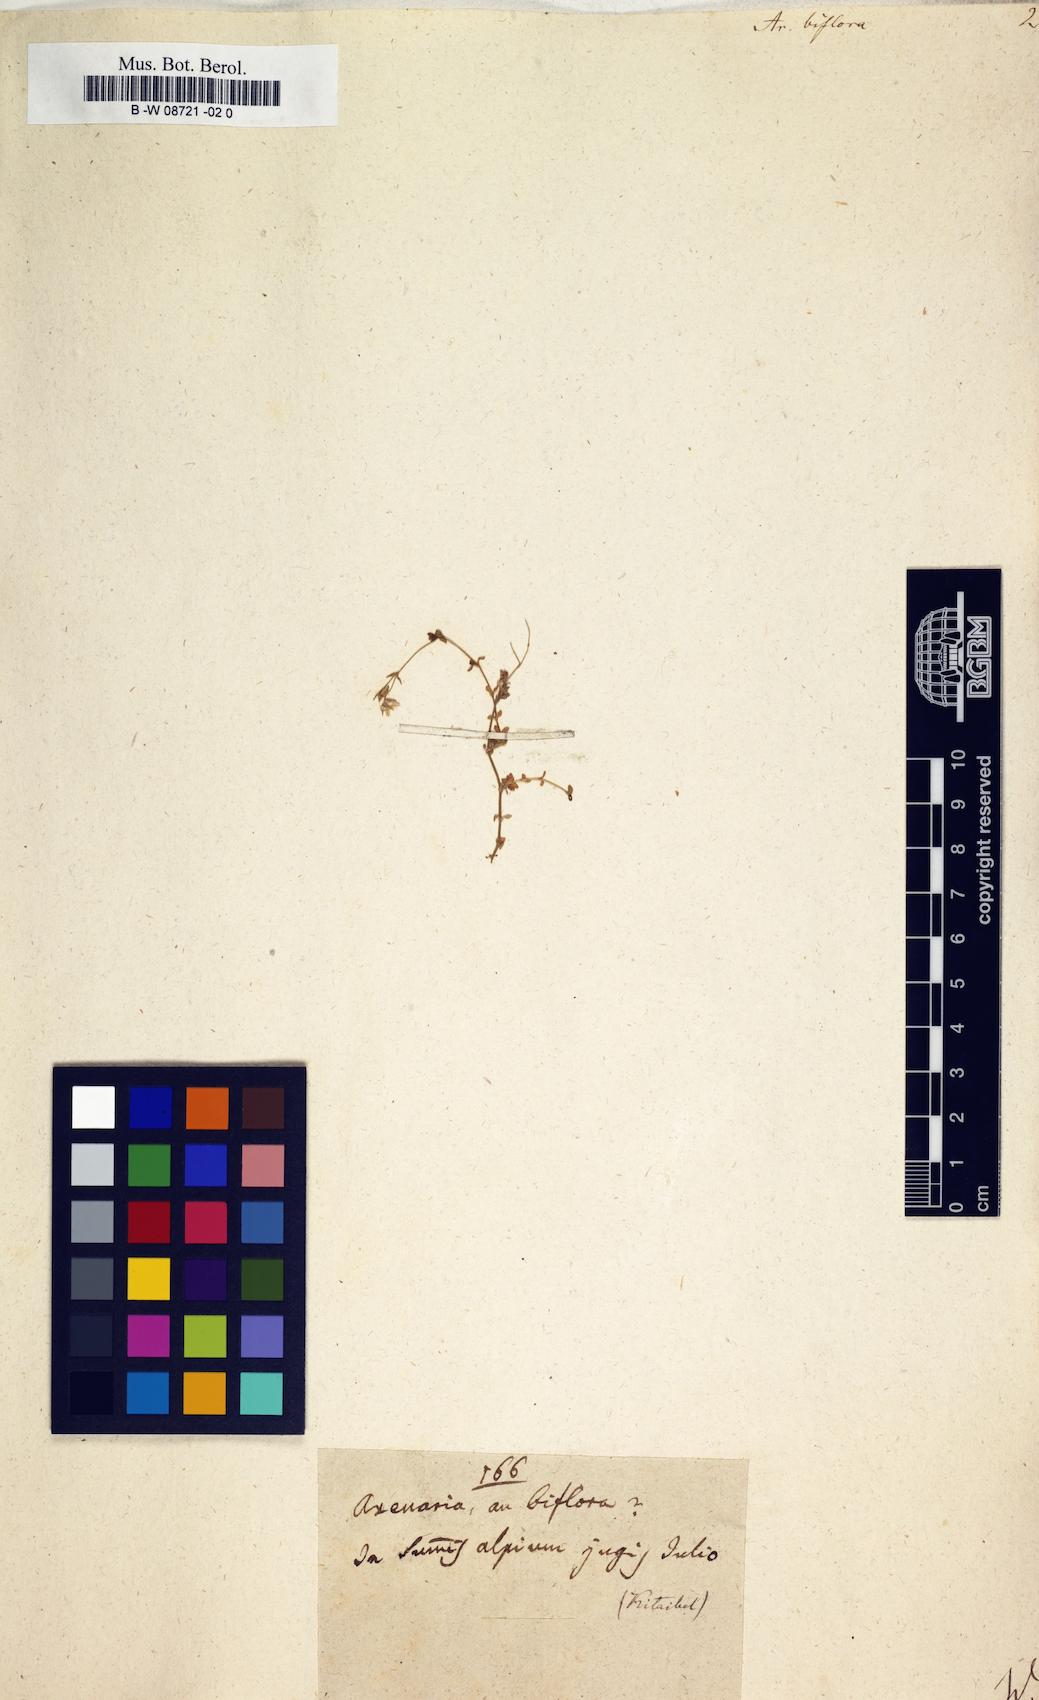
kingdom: Plantae
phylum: Tracheophyta
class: Magnoliopsida
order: Caryophyllales
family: Caryophyllaceae
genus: Arenaria
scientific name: Arenaria biflora
